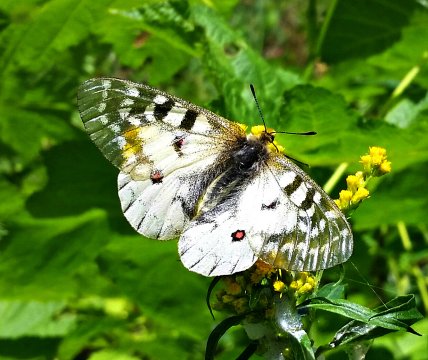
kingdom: Animalia
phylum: Arthropoda
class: Insecta
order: Lepidoptera
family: Papilionidae
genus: Parnassius
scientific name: Parnassius clodius
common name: Clodius Parnassian
